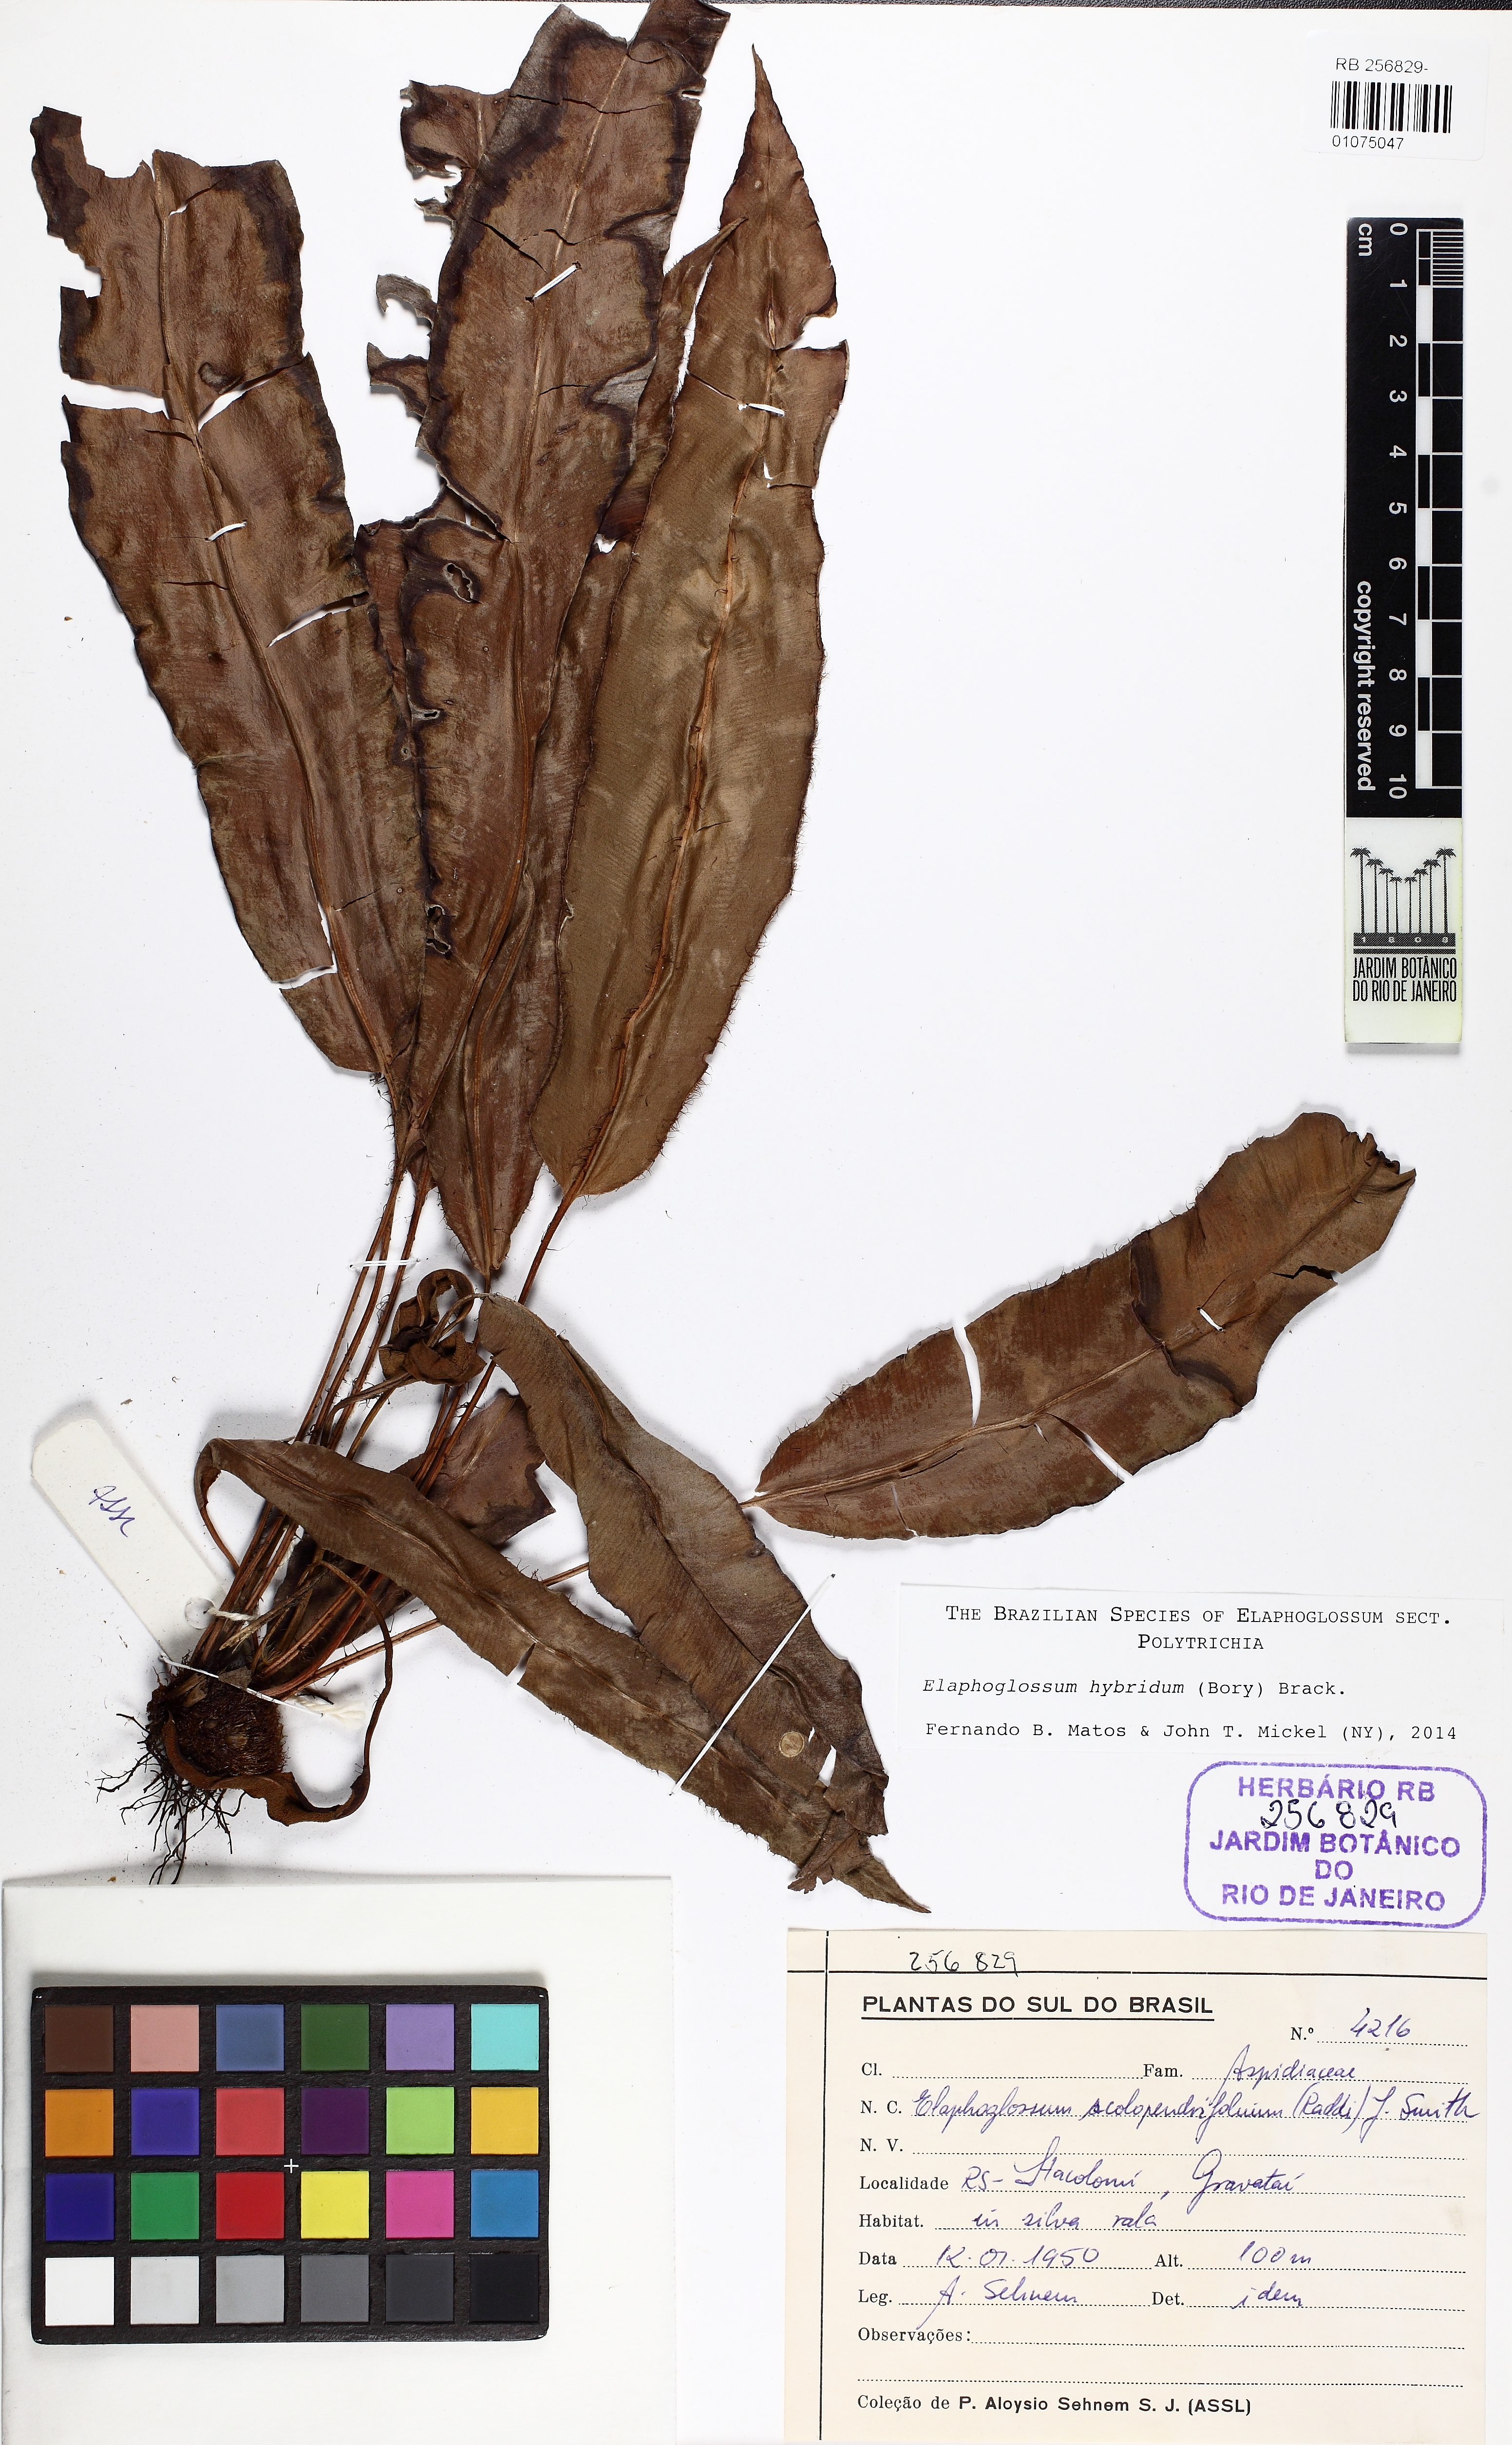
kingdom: Plantae
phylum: Tracheophyta
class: Polypodiopsida
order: Polypodiales
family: Dryopteridaceae
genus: Elaphoglossum
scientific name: Elaphoglossum hybridum
